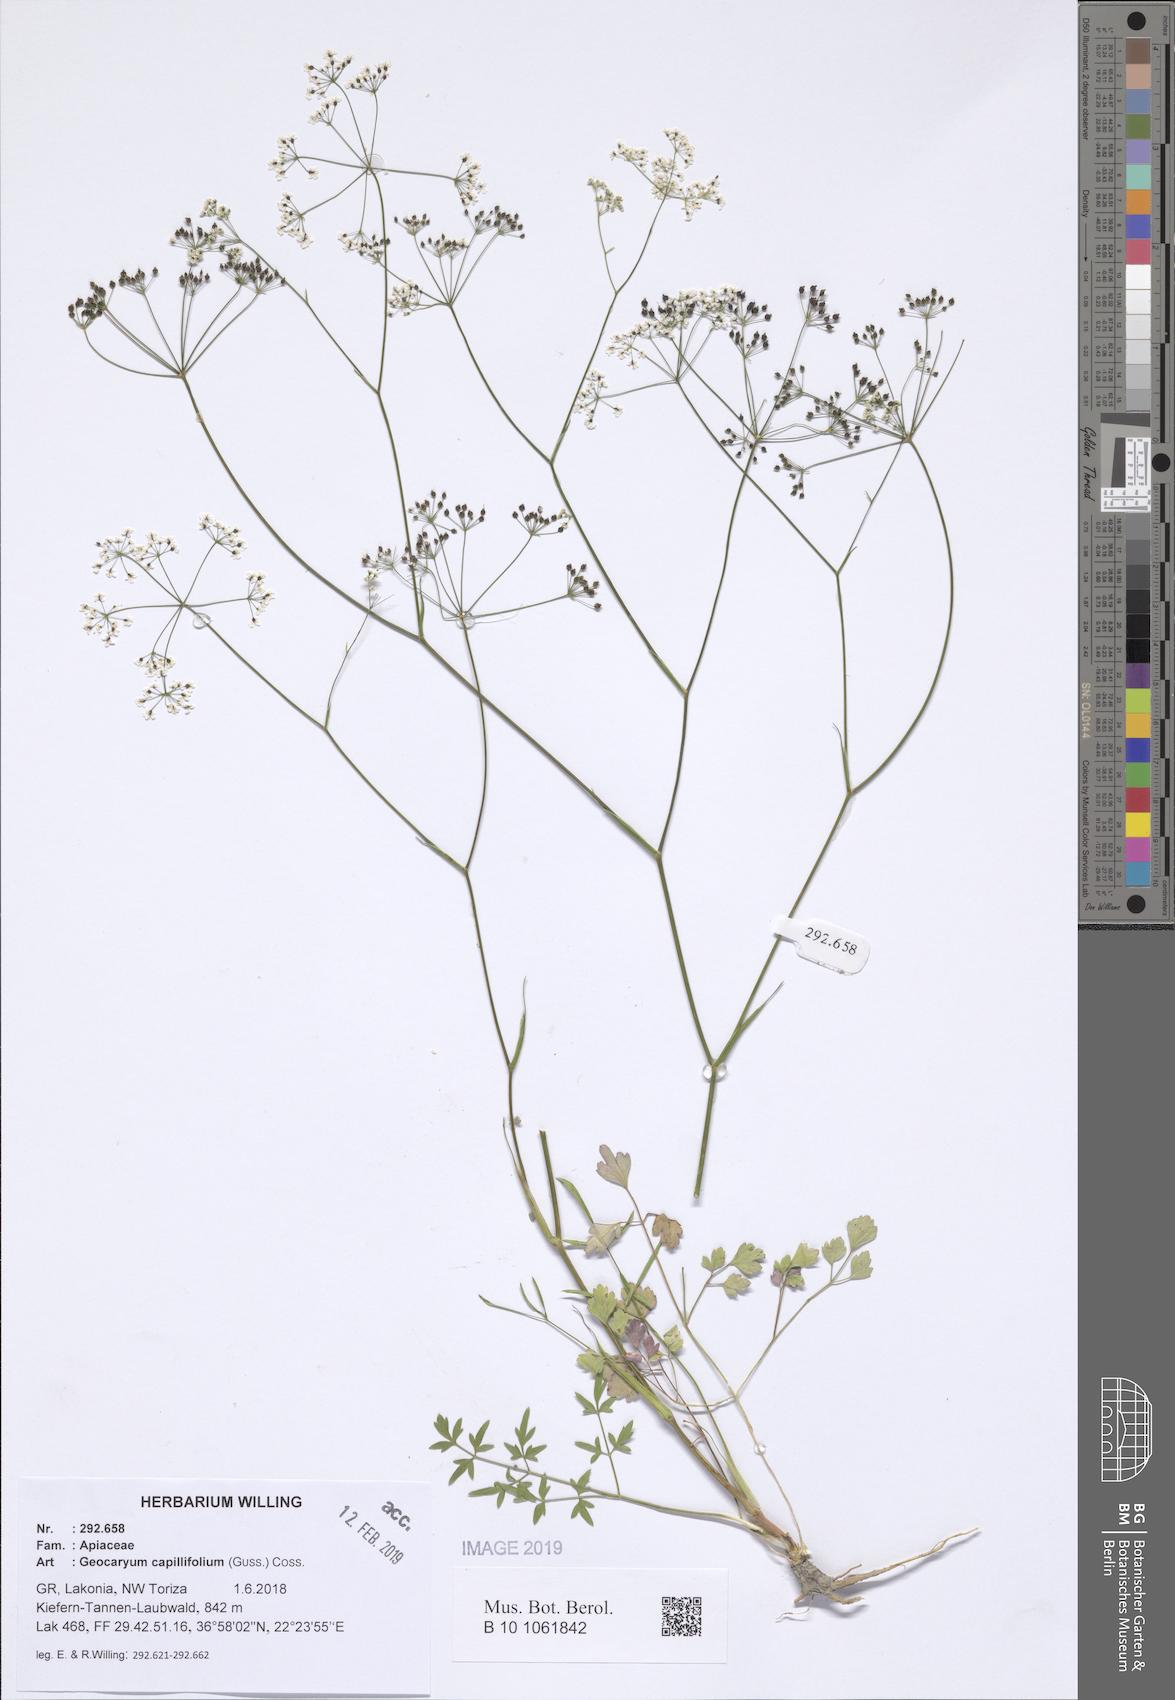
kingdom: Plantae
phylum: Tracheophyta
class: Magnoliopsida
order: Apiales
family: Apiaceae
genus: Geocaryum
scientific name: Geocaryum capillifolium
